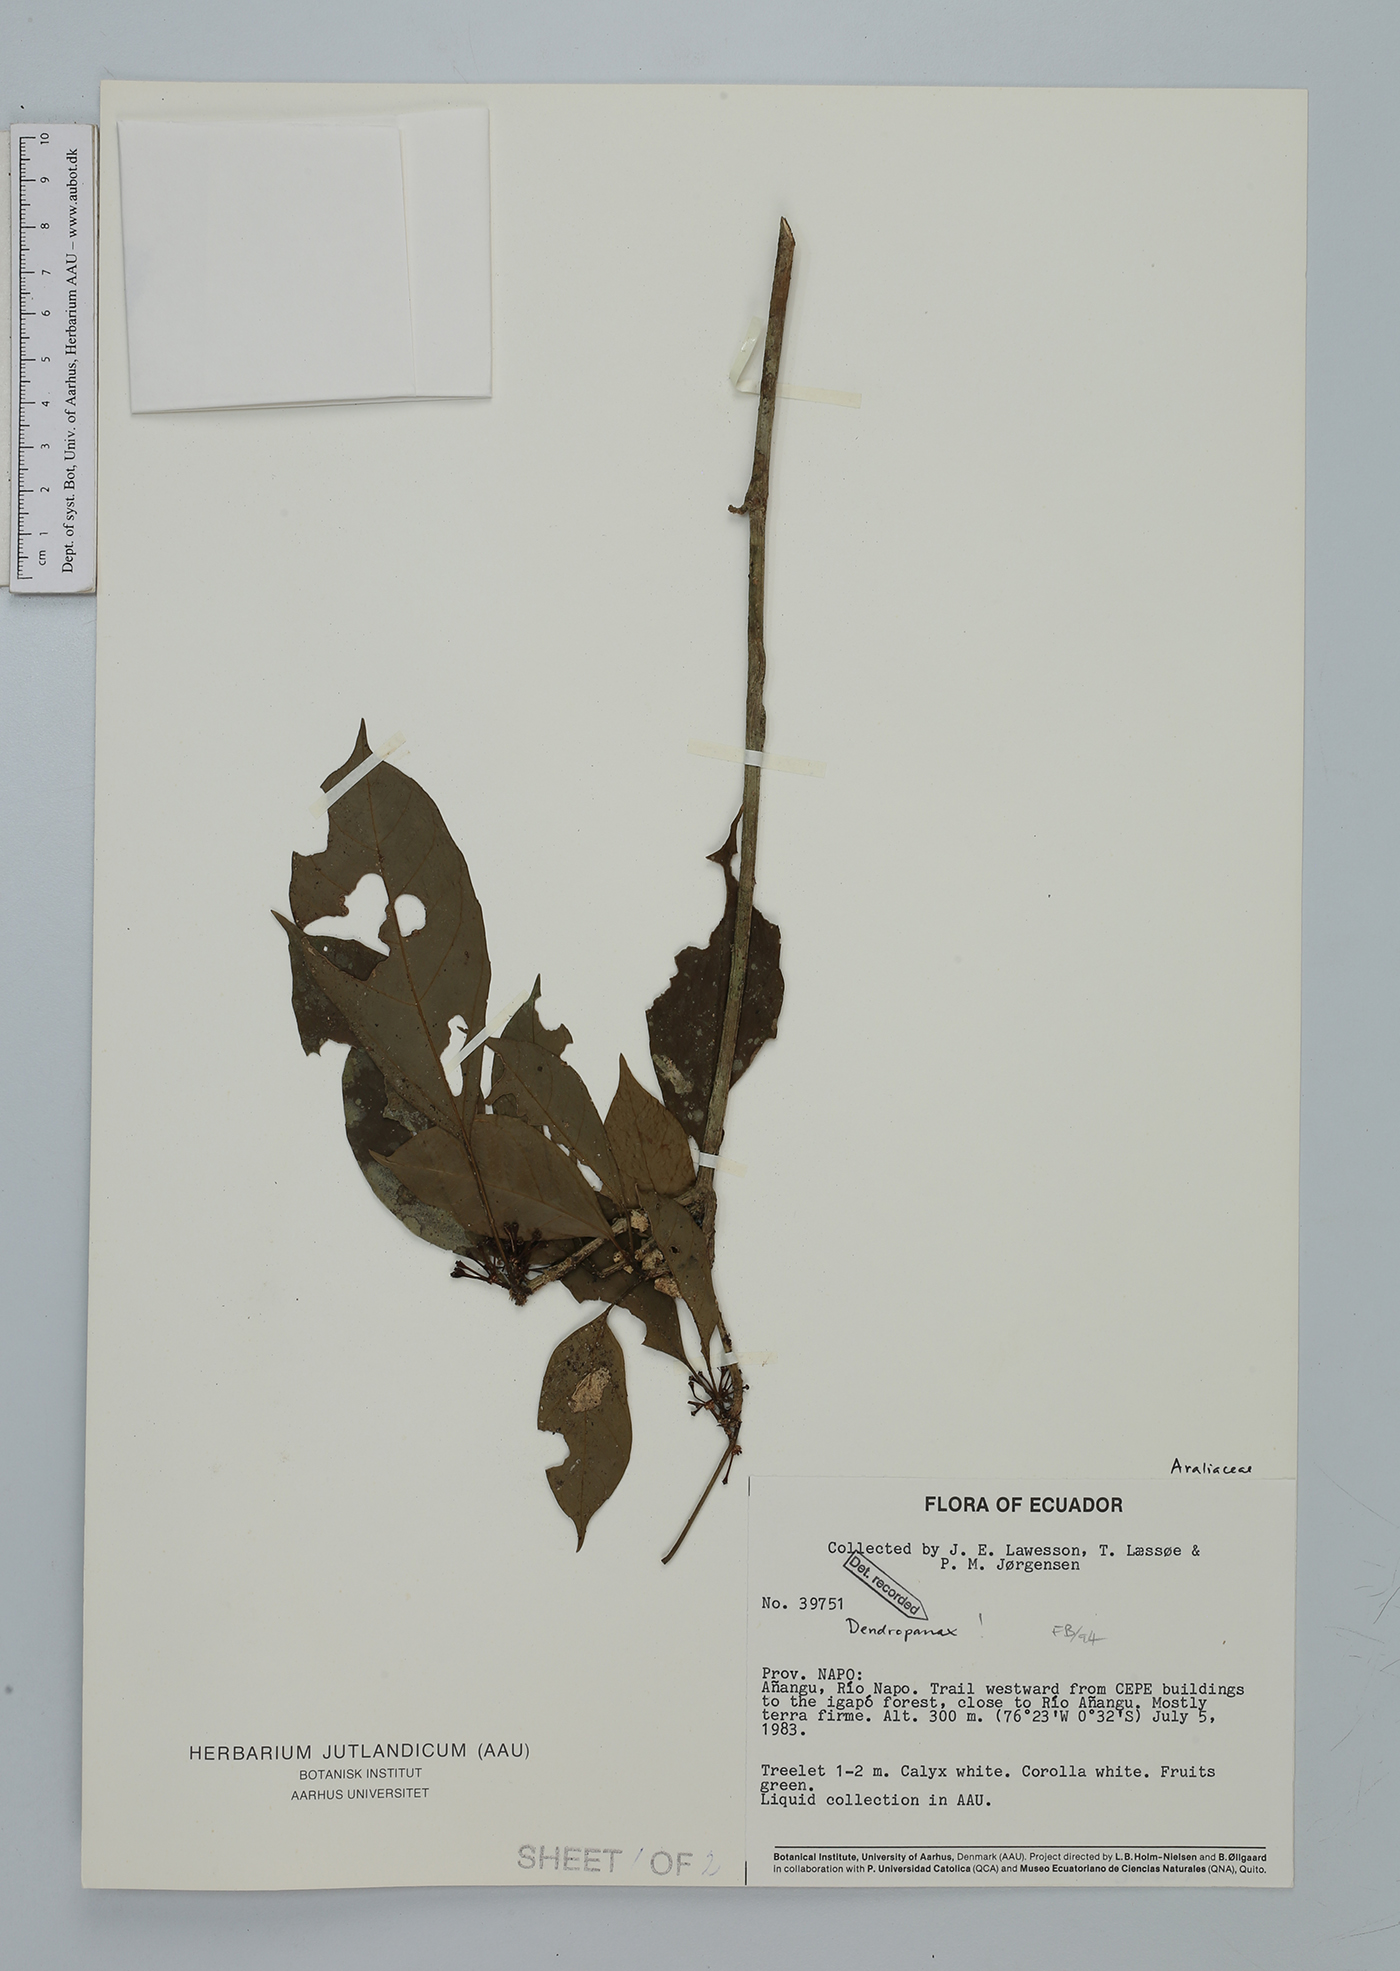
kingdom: Plantae
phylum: Tracheophyta
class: Magnoliopsida
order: Apiales
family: Araliaceae
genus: Dendropanax
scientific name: Dendropanax
